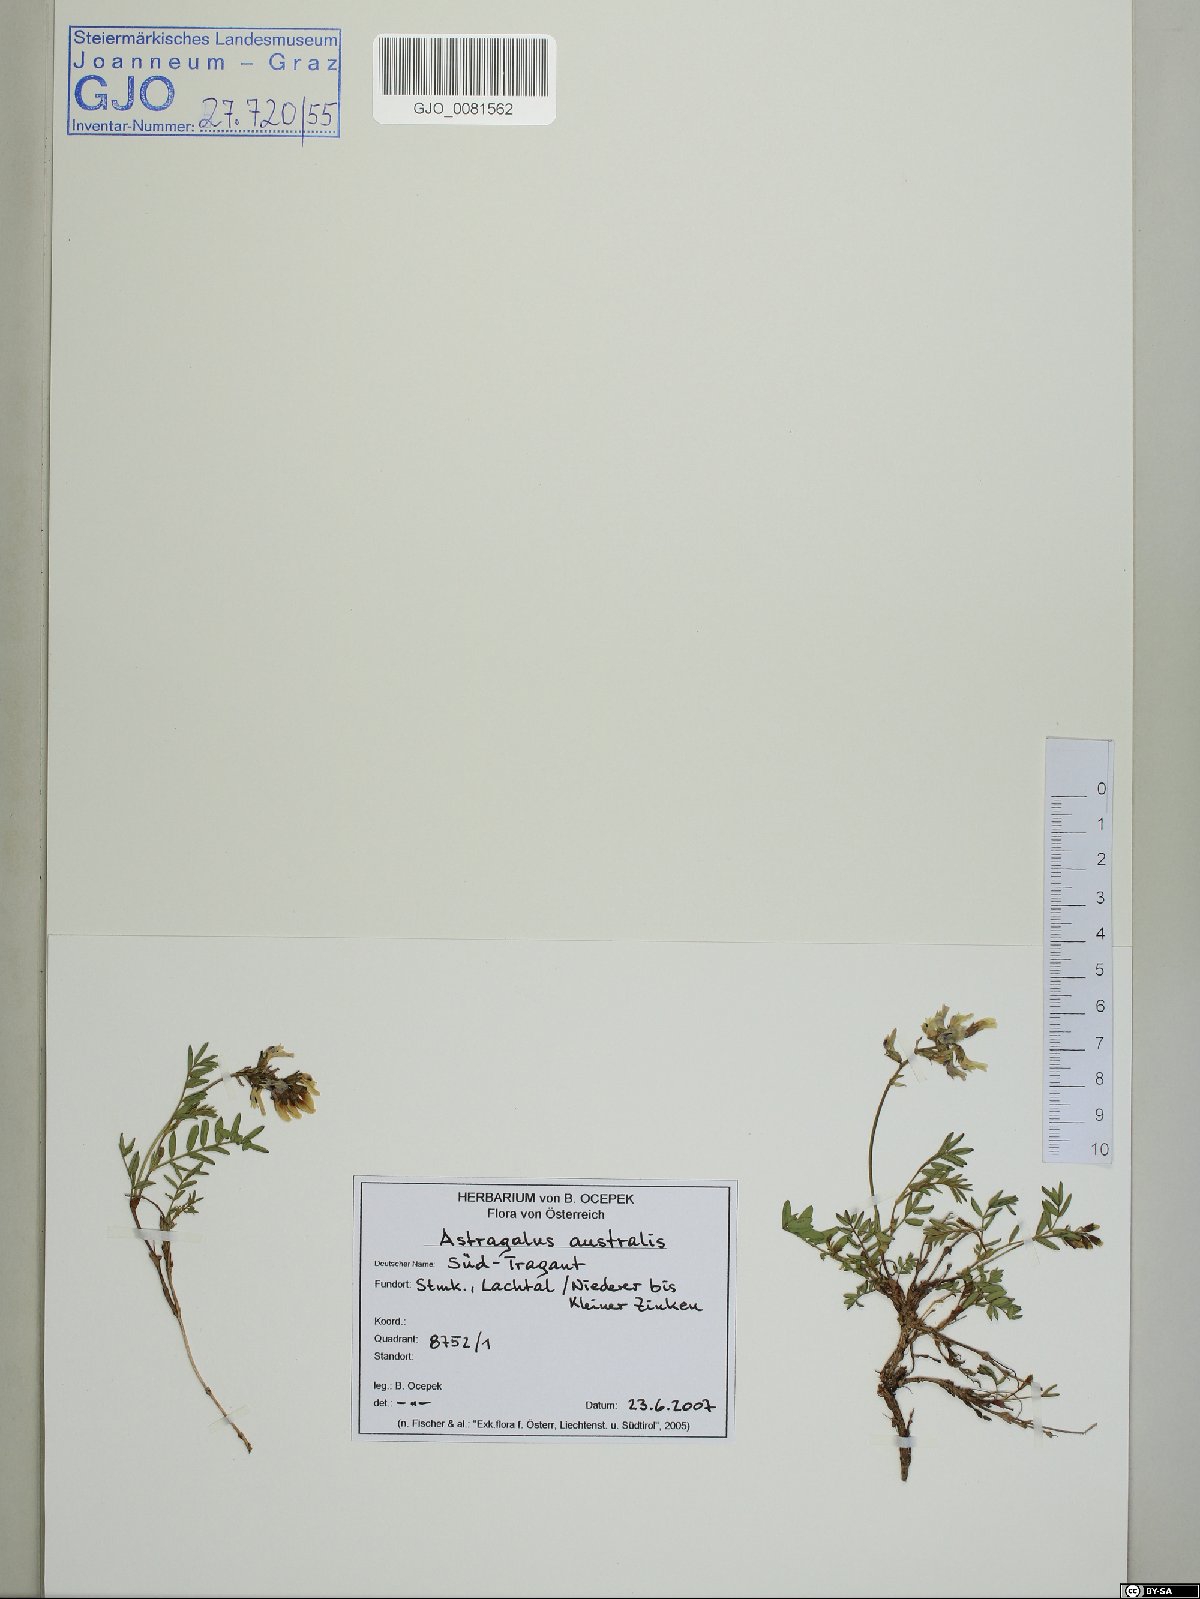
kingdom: Plantae
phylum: Tracheophyta
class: Magnoliopsida
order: Fabales
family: Fabaceae
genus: Astragalus
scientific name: Astragalus australis
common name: Indian milk-vetch
